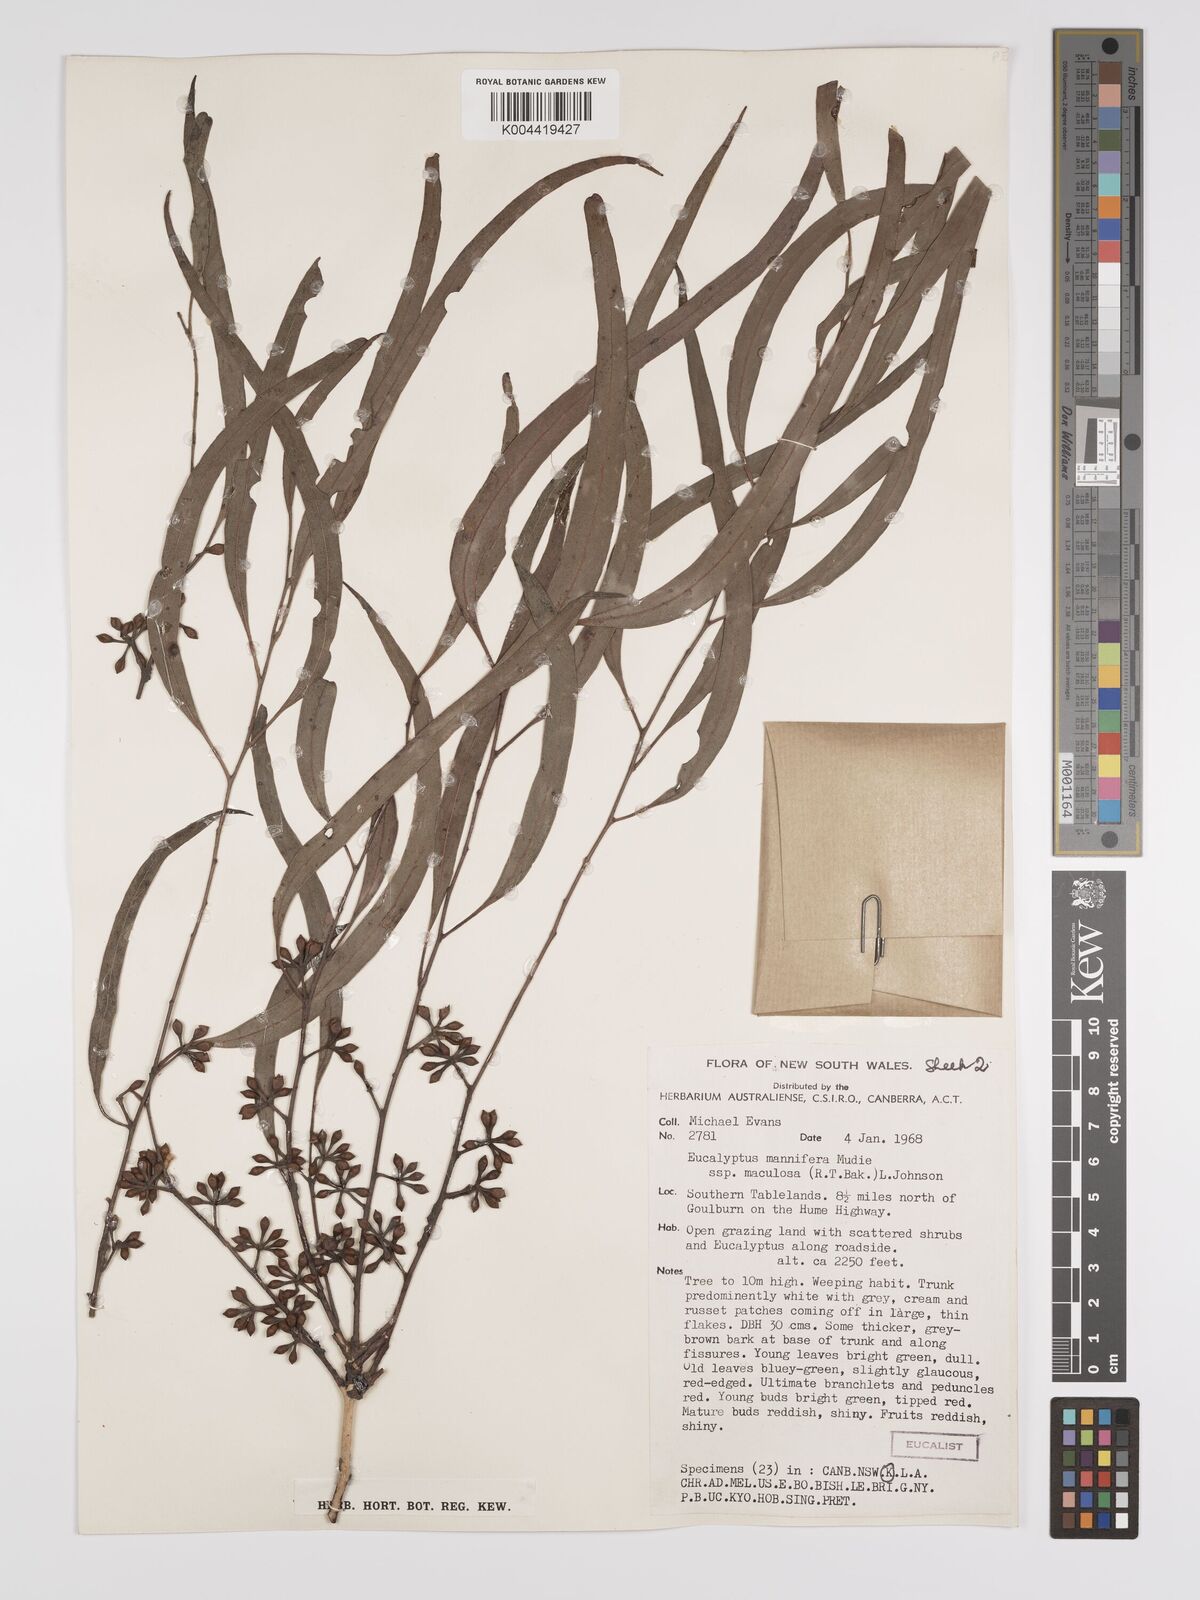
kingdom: Plantae
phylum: Tracheophyta
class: Magnoliopsida
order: Myrtales
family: Myrtaceae
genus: Eucalyptus
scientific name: Eucalyptus mannifera
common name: Manna gum
